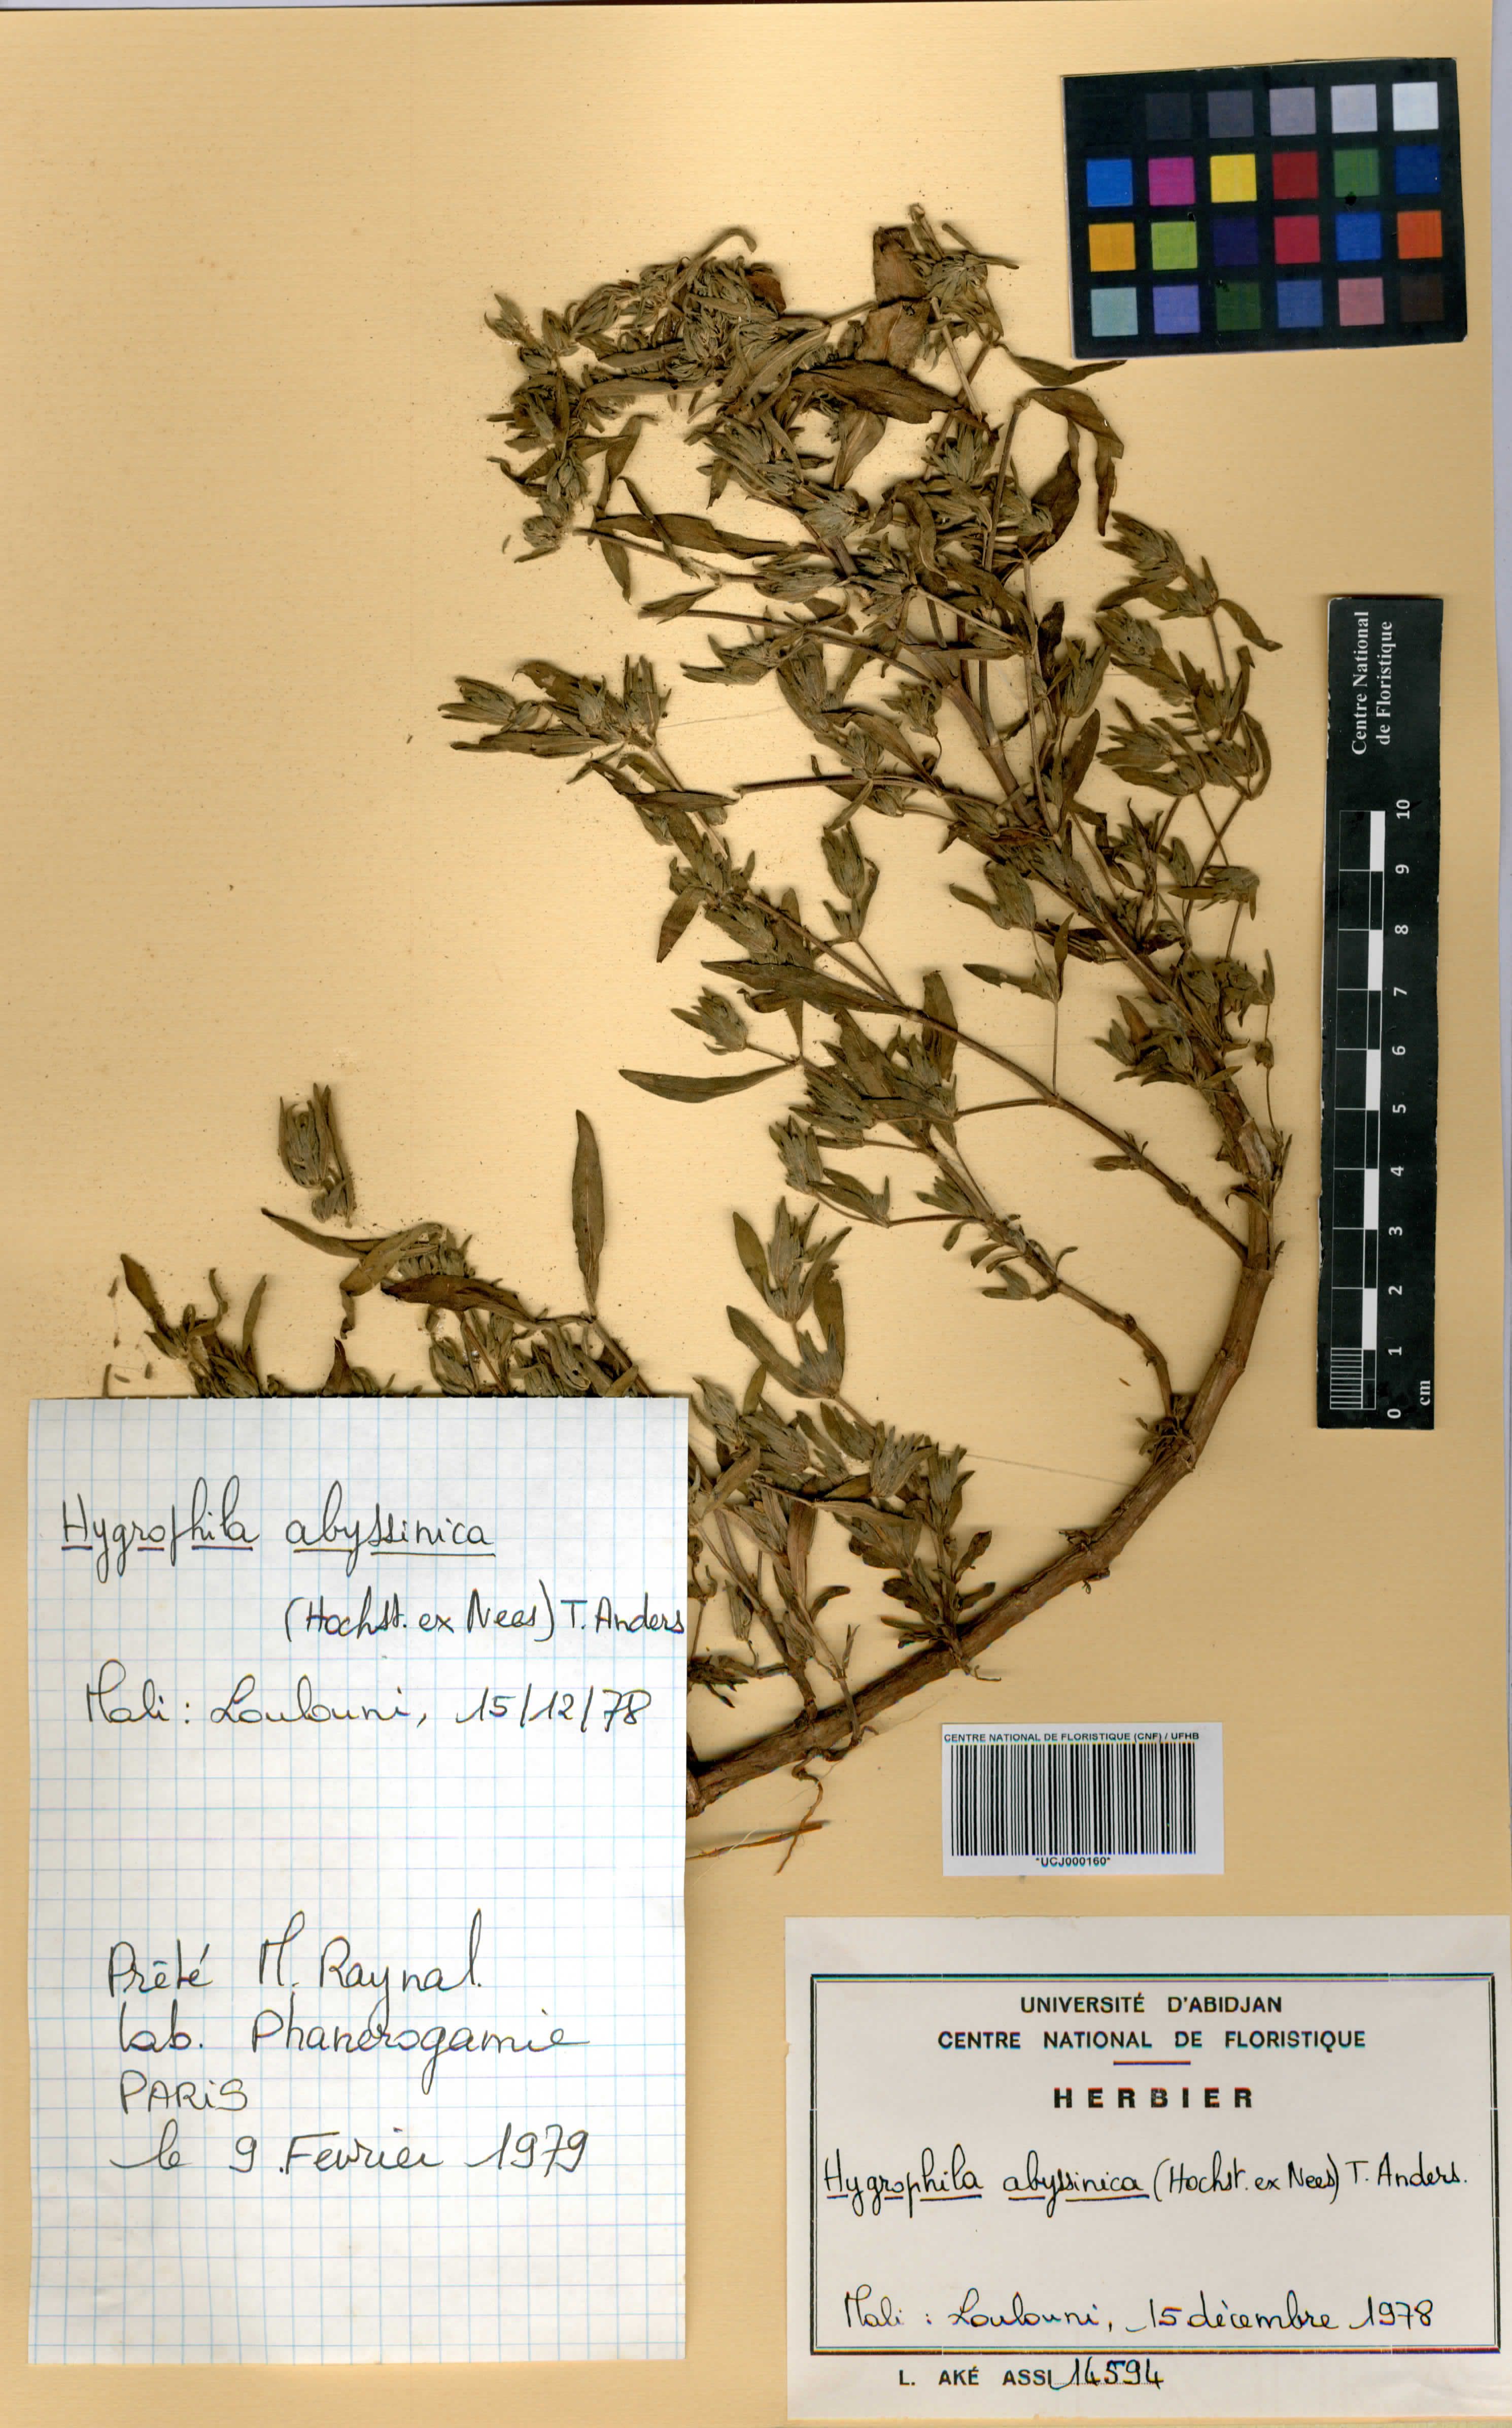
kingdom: Plantae
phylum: Tracheophyta
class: Magnoliopsida
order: Lamiales
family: Acanthaceae
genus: Hygrophila
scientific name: Hygrophila abyssinica
